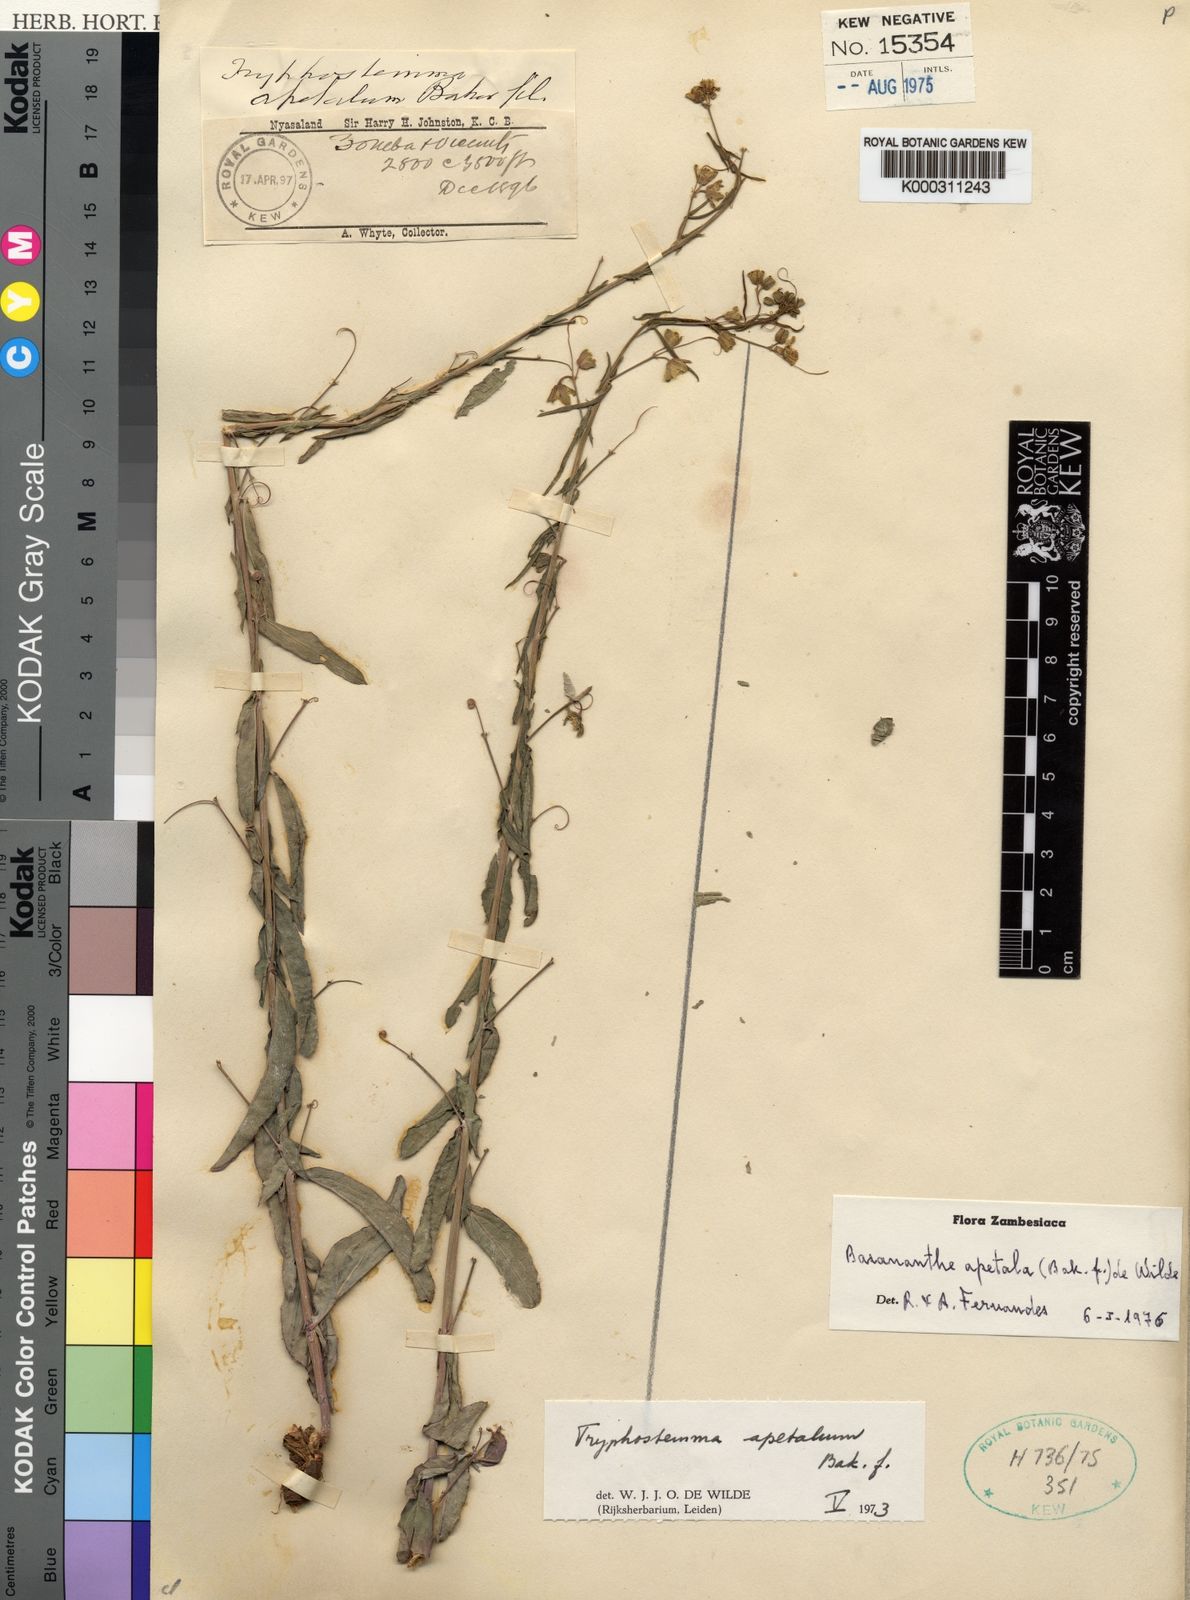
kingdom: Plantae
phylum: Tracheophyta
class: Magnoliopsida
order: Malpighiales
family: Passifloraceae
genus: Basananthe
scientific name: Basananthe apetala
